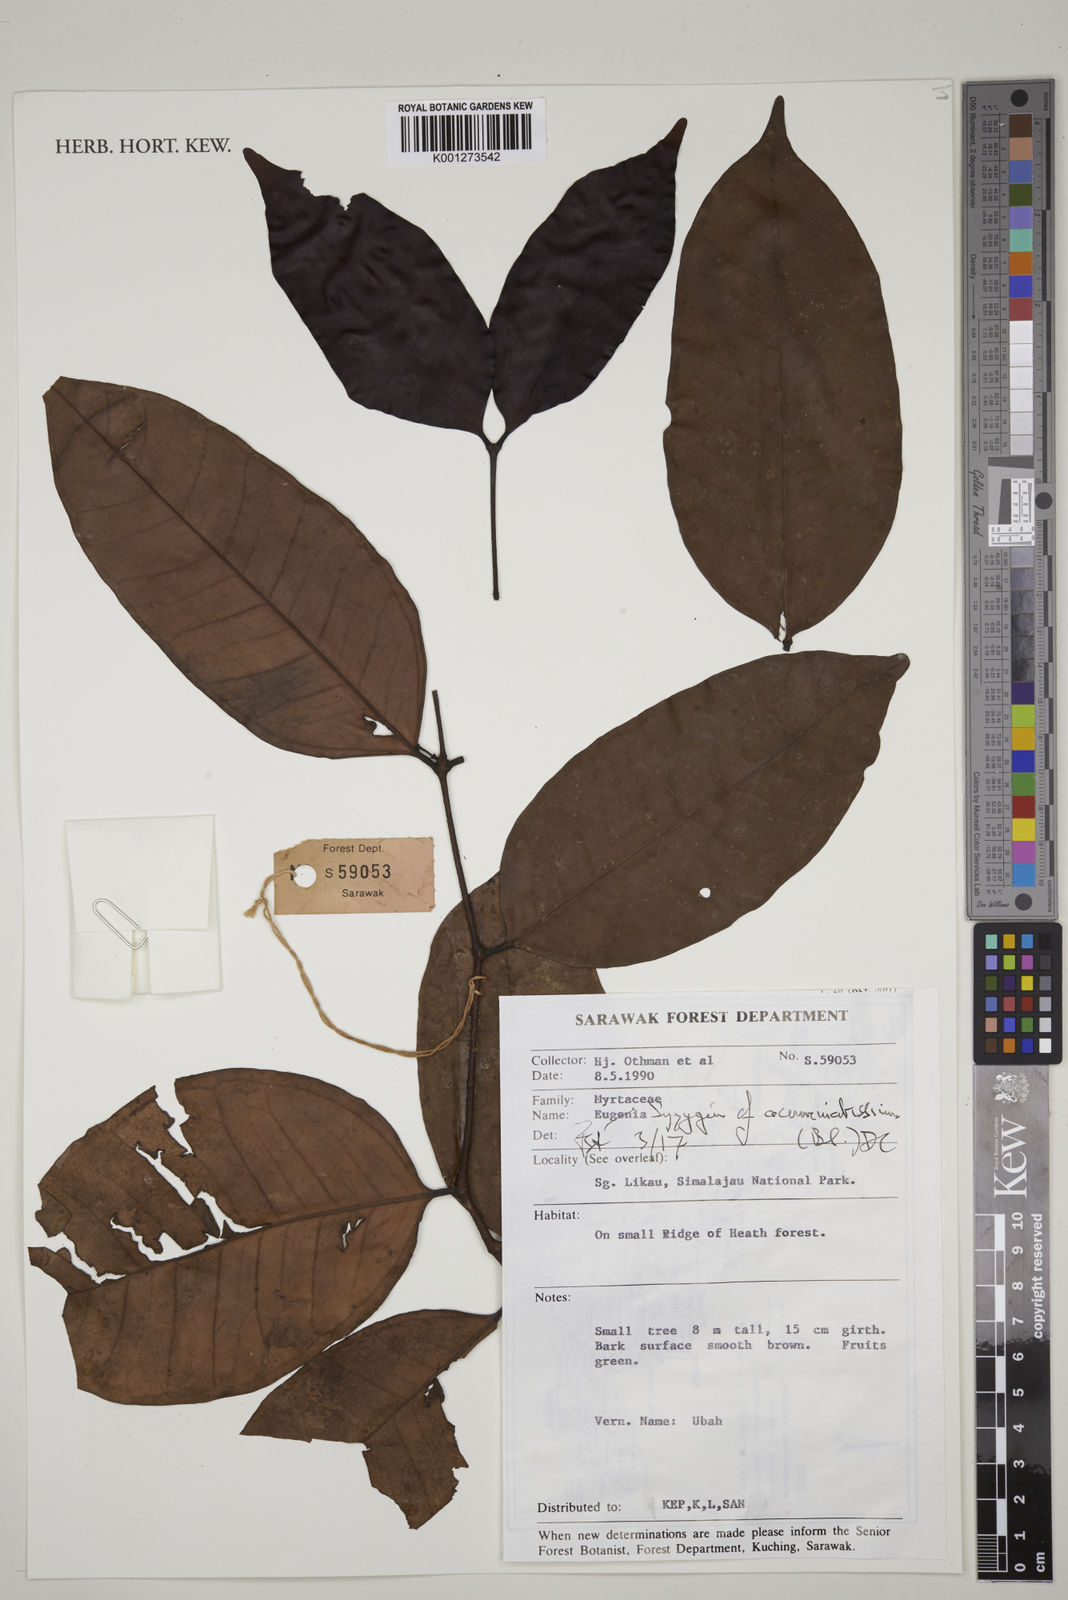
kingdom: Plantae
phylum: Tracheophyta
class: Magnoliopsida
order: Myrtales
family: Myrtaceae
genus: Syzygium
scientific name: Syzygium acuminatissimum
